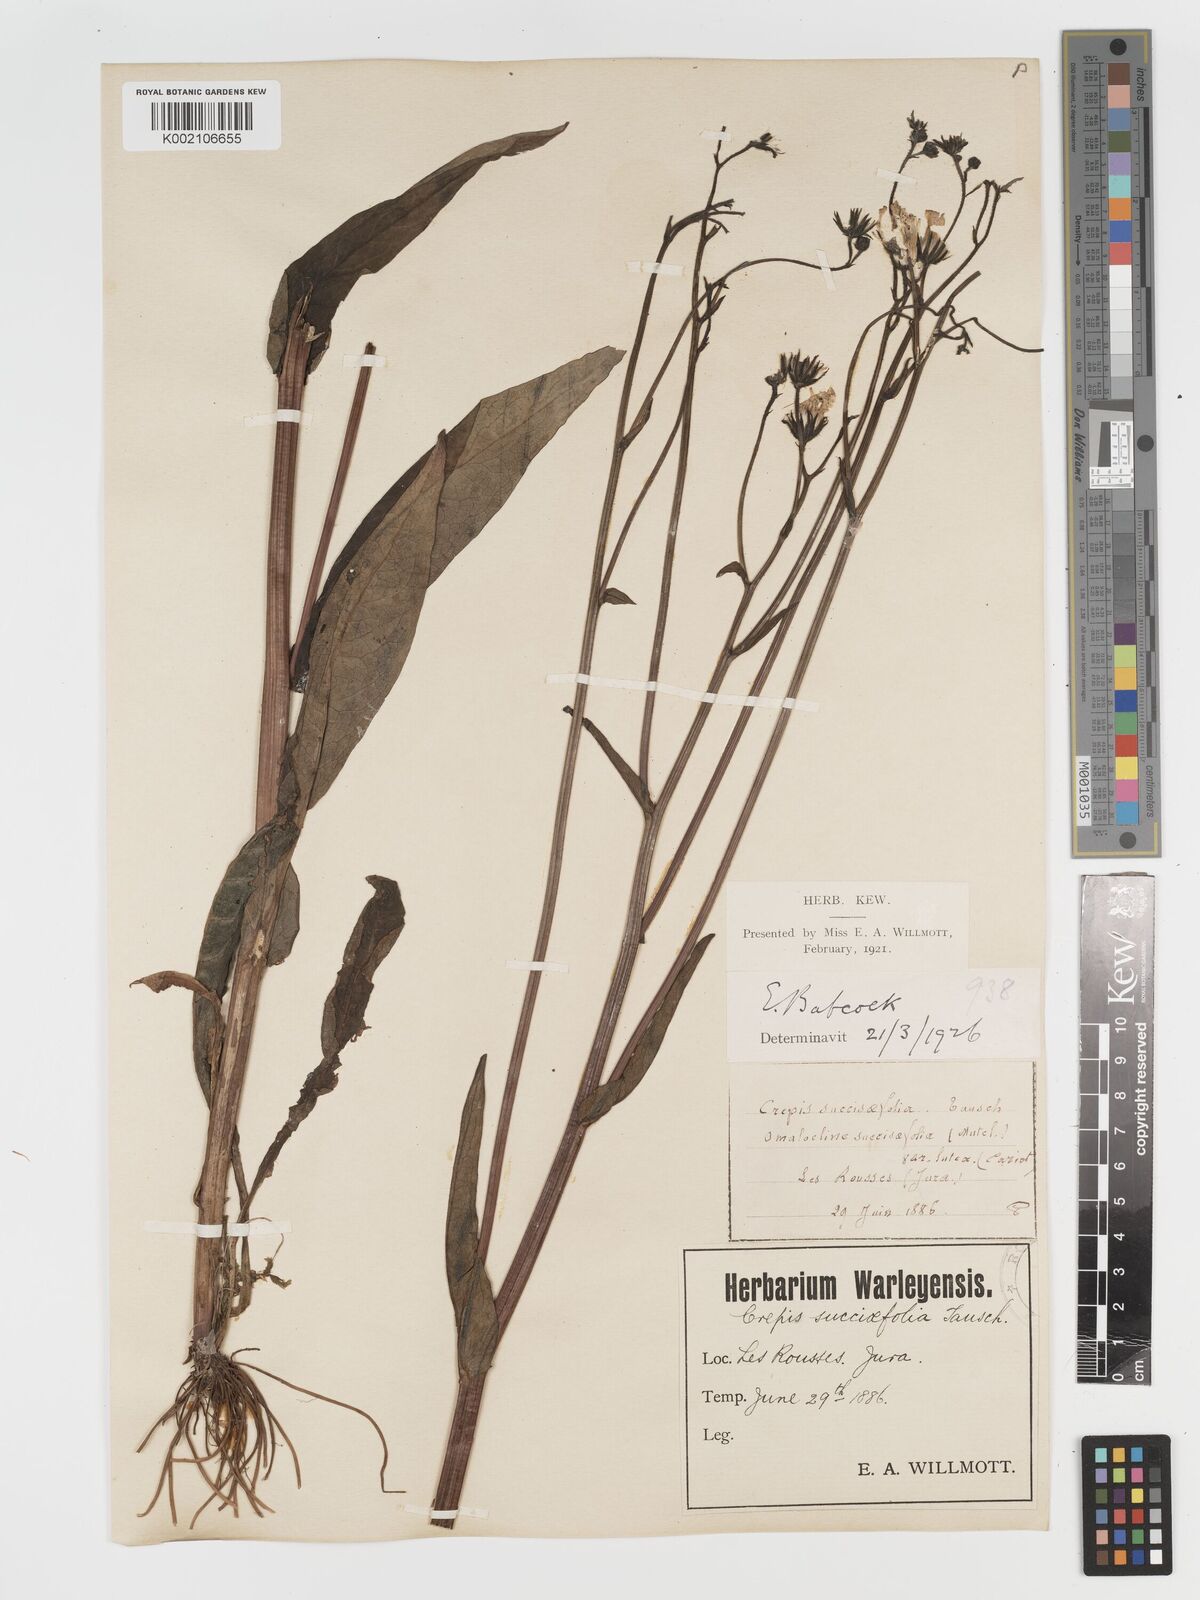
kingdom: Plantae
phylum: Tracheophyta
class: Magnoliopsida
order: Asterales
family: Asteraceae
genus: Crepis
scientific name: Crepis mollis
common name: Northern hawk's-beard
